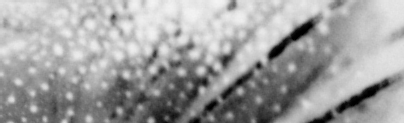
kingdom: Animalia
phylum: Chordata
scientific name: Chordata
